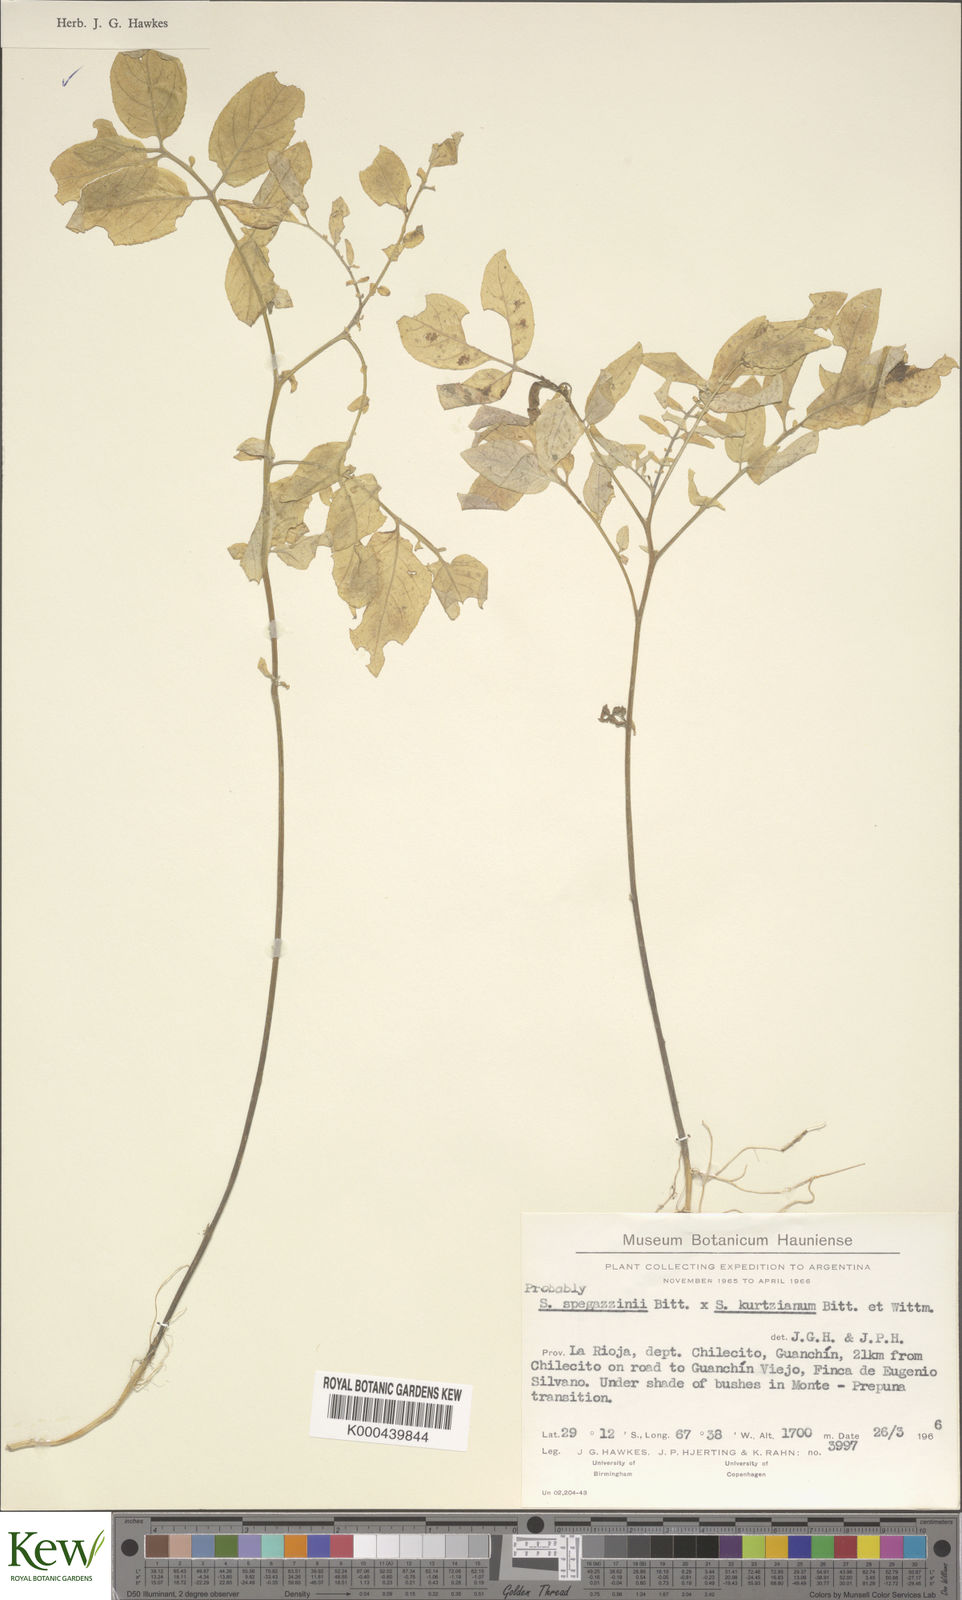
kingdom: Plantae
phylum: Tracheophyta
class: Magnoliopsida
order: Solanales
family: Solanaceae
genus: Solanum
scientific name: Solanum brevicaule
